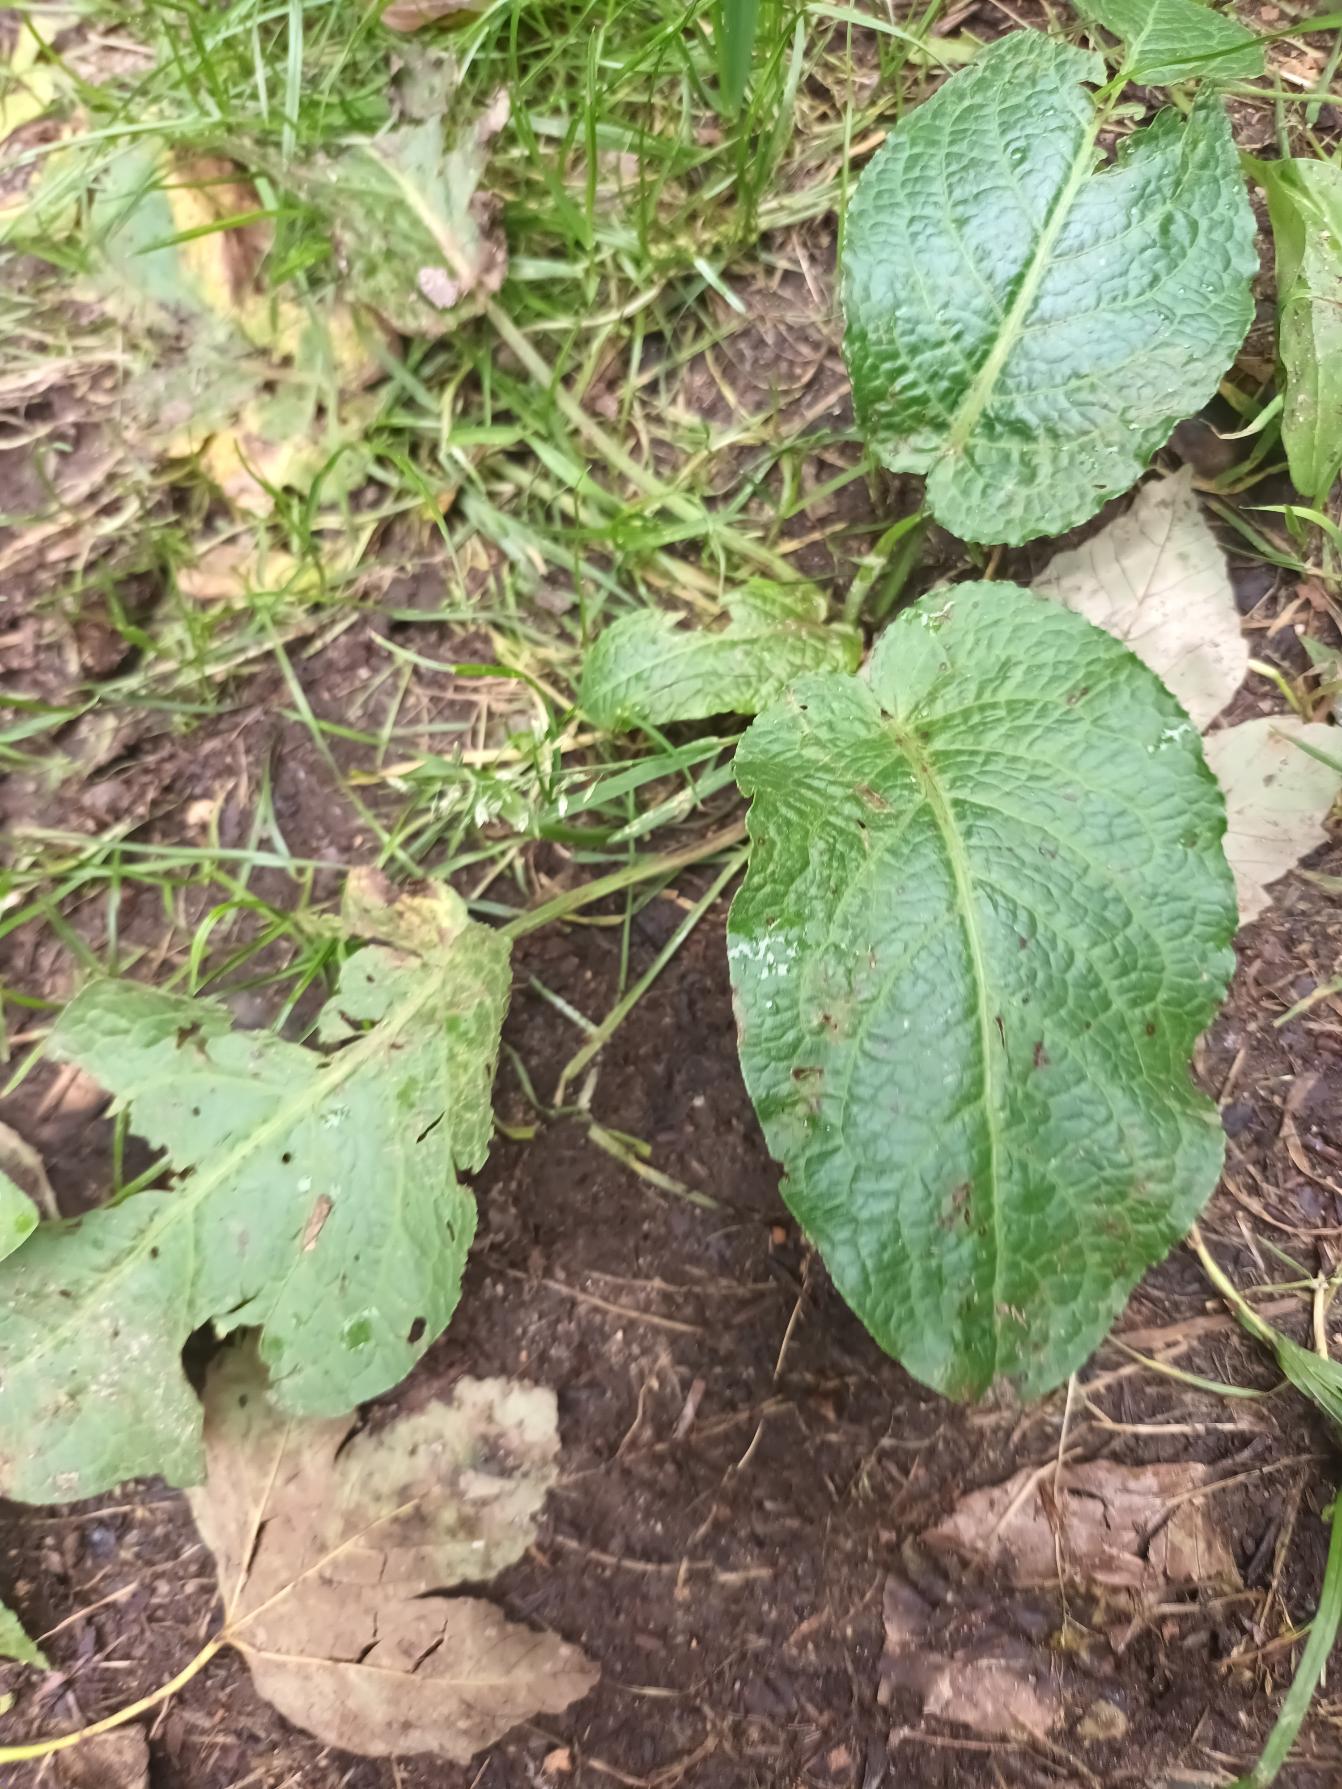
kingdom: Plantae
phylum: Tracheophyta
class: Magnoliopsida
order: Caryophyllales
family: Polygonaceae
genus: Rumex
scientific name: Rumex obtusifolius
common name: Butbladet skræppe
